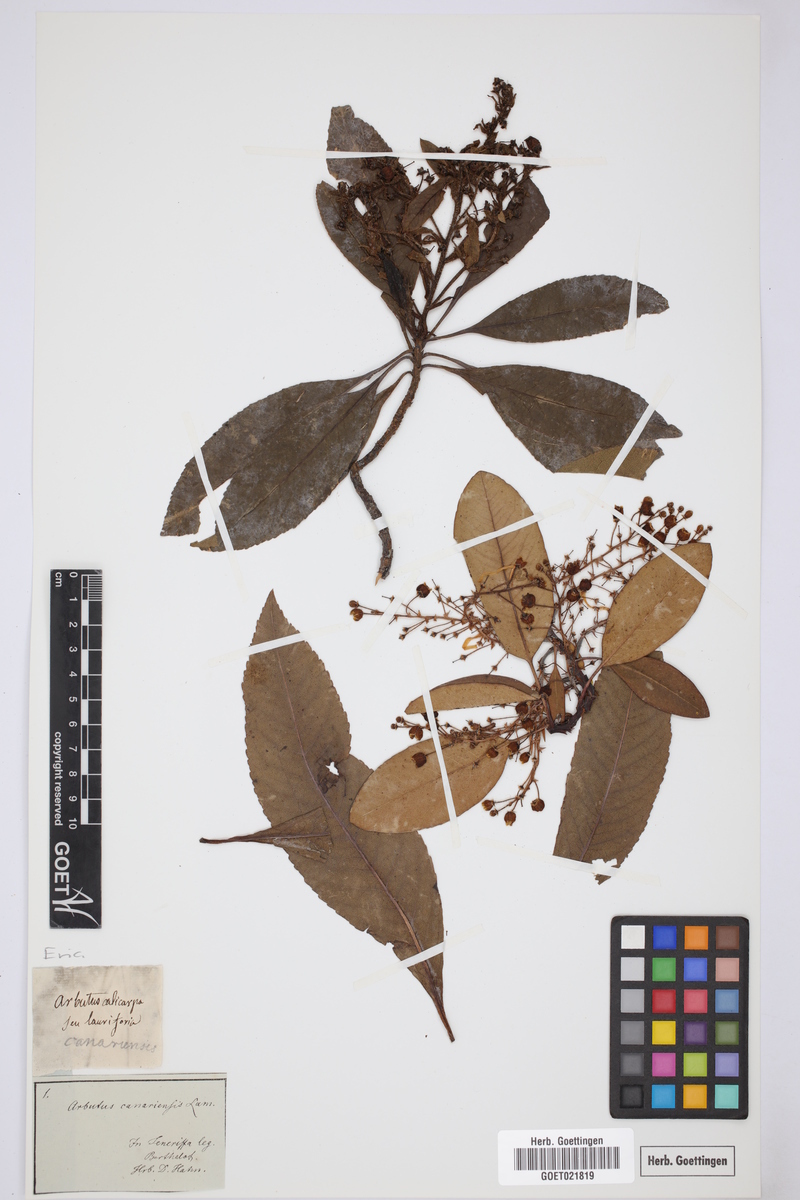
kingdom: Plantae
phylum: Tracheophyta
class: Magnoliopsida
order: Ericales
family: Ericaceae
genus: Arbutus
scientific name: Arbutus canariensis
